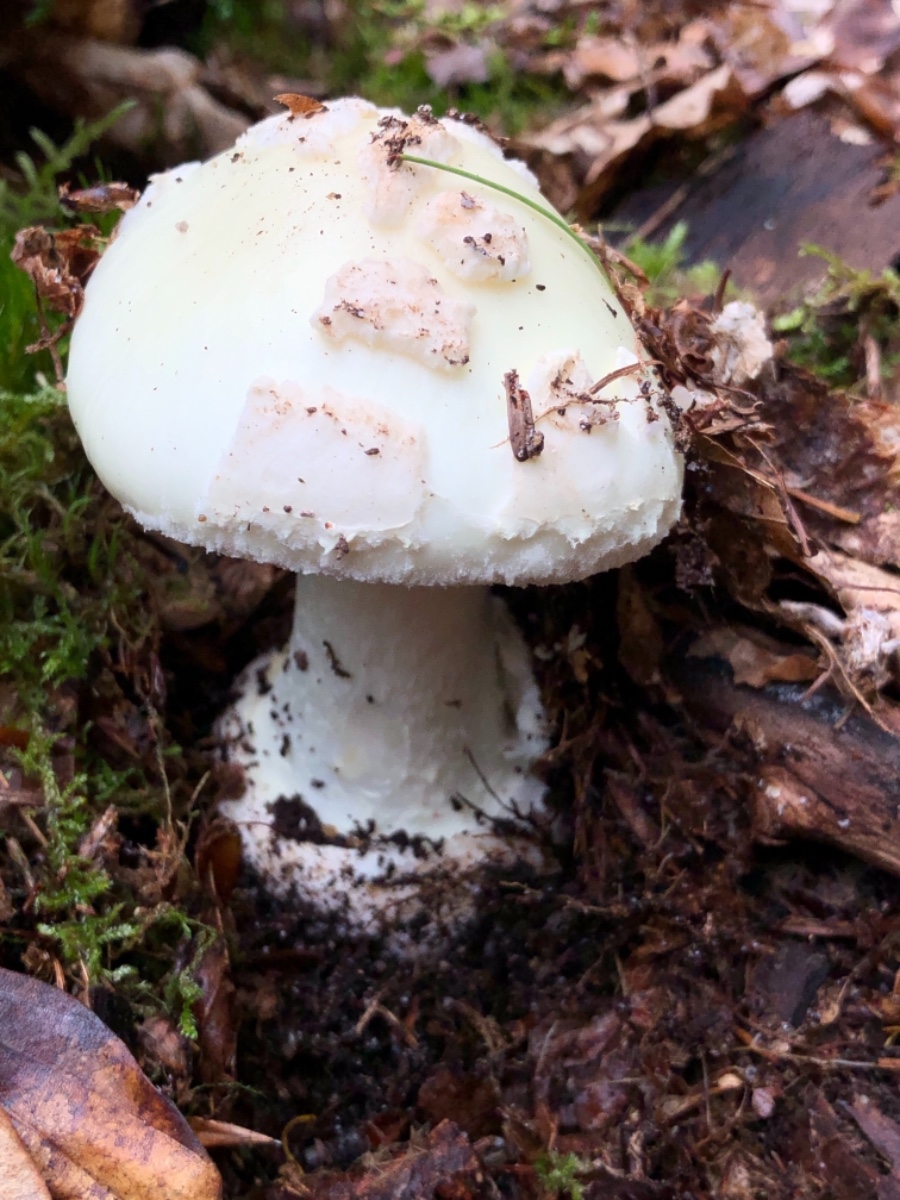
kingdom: Fungi
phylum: Basidiomycota
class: Agaricomycetes
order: Agaricales
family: Amanitaceae
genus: Amanita
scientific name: Amanita citrina
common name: False death-cap
